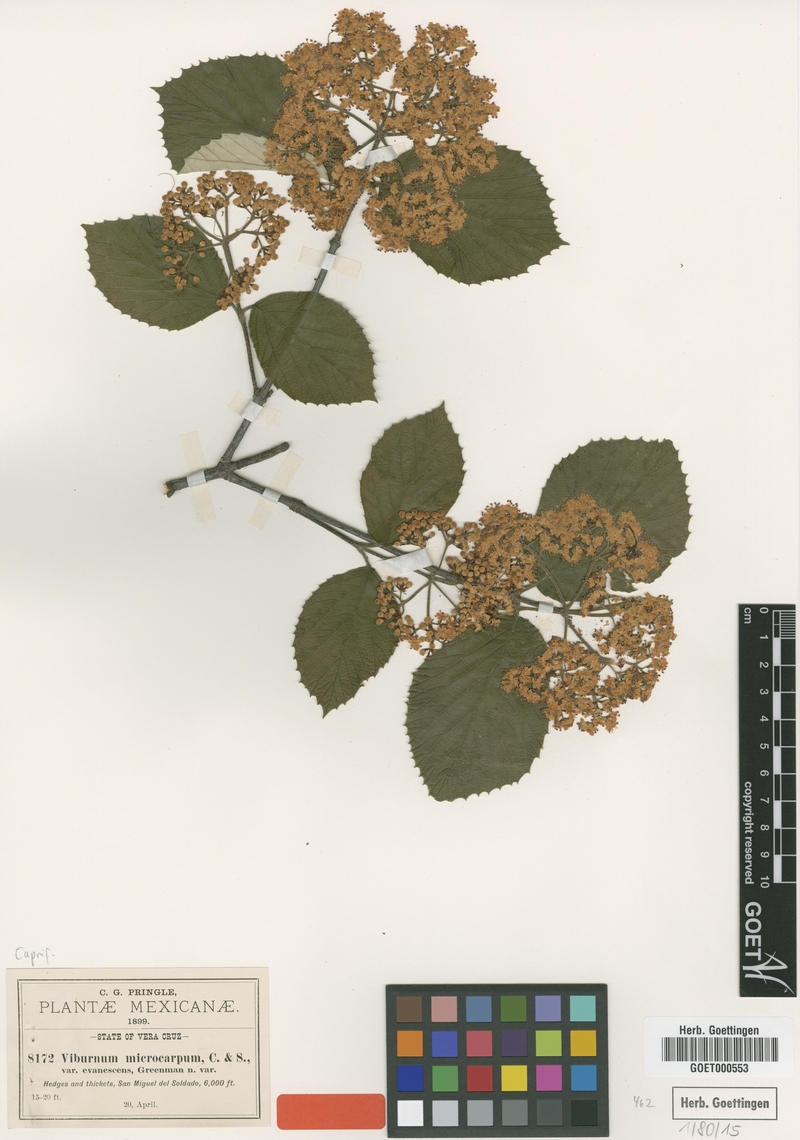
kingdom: Plantae
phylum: Tracheophyta
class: Magnoliopsida
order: Dipsacales
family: Viburnaceae
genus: Viburnum
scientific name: Viburnum microcarpum
